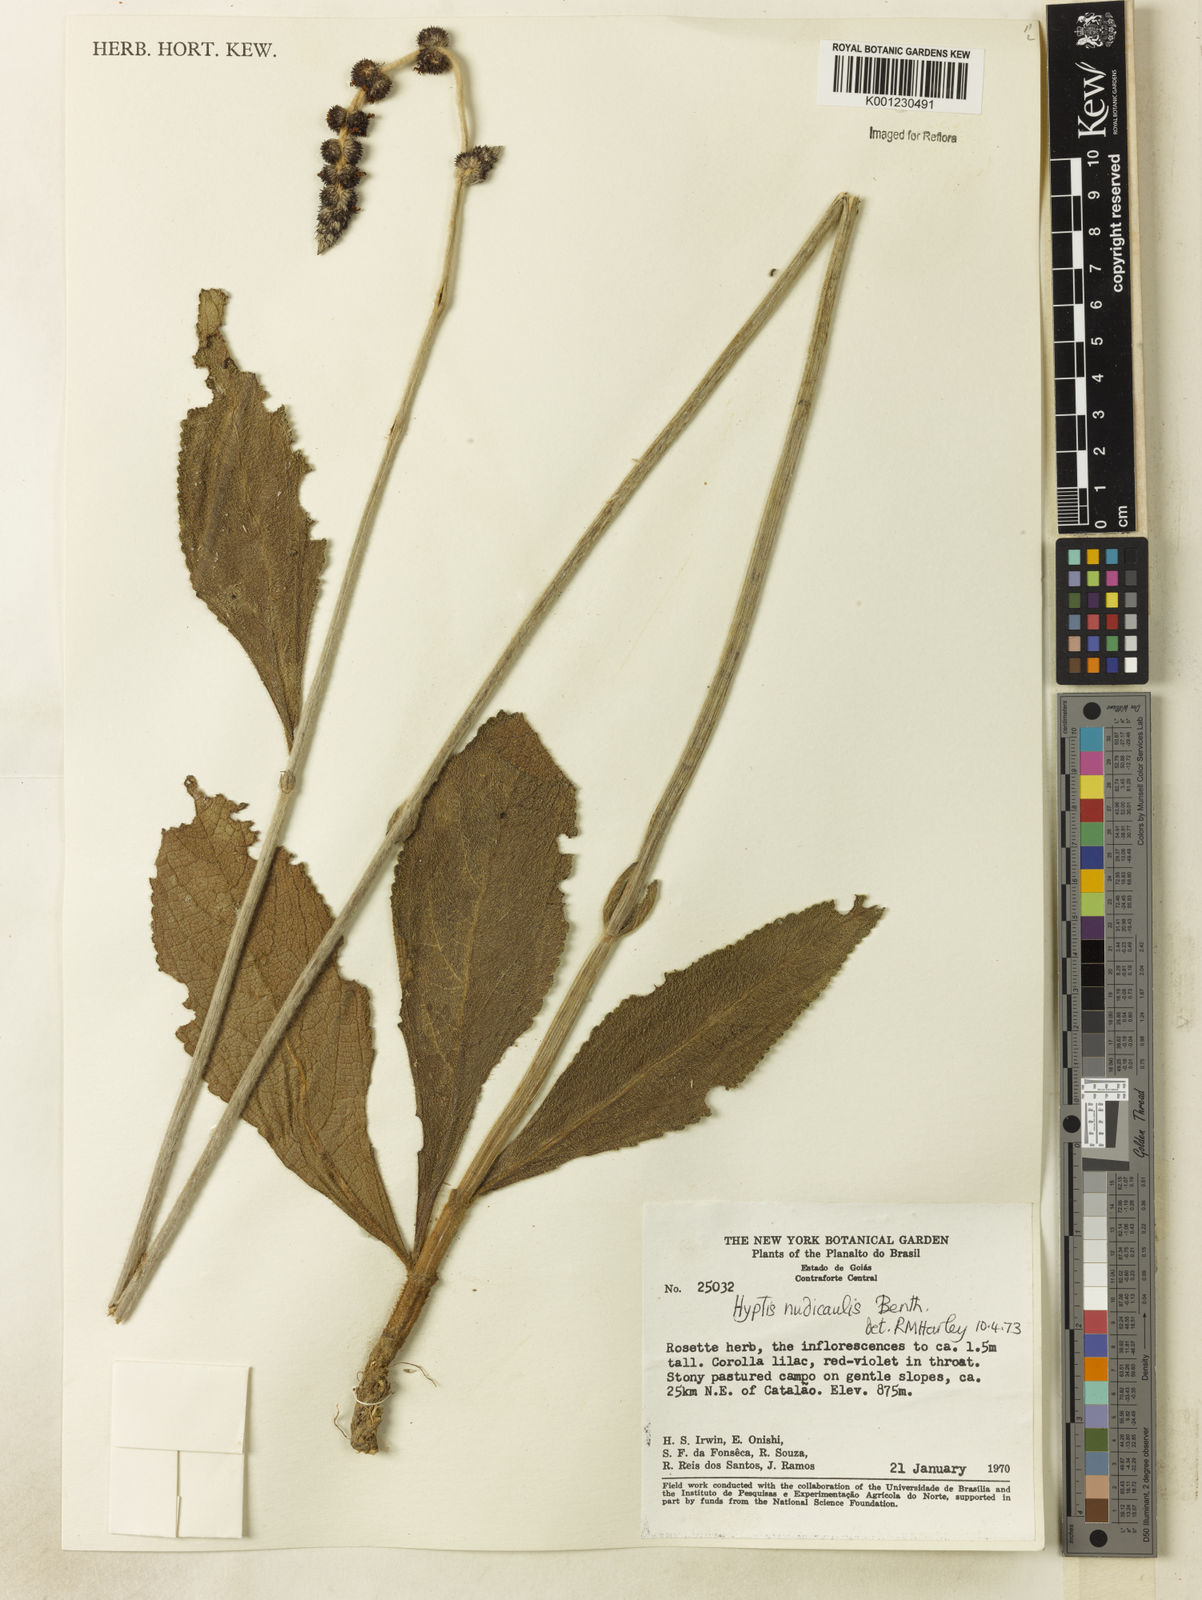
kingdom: Plantae
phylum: Tracheophyta
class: Magnoliopsida
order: Lamiales
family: Lamiaceae
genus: Hyptis
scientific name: Hyptis nudicaulis
